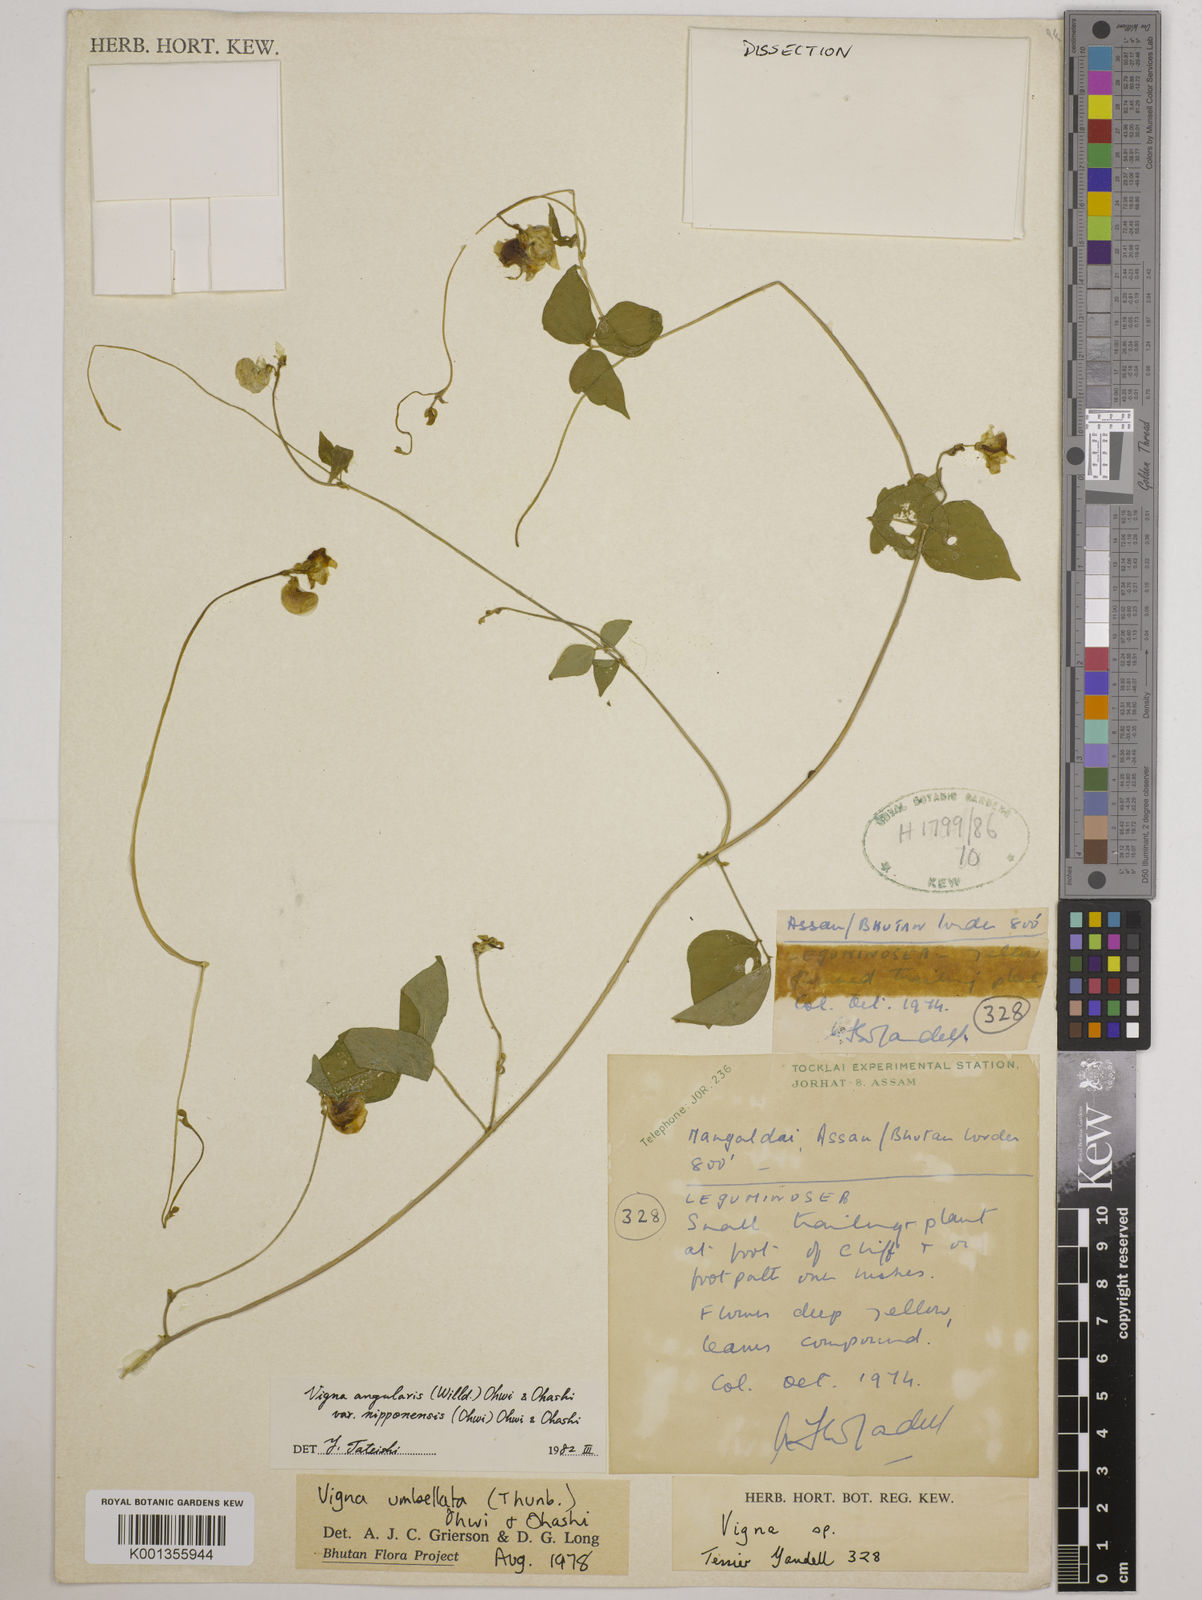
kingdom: Plantae
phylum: Tracheophyta
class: Magnoliopsida
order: Fabales
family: Fabaceae
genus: Vigna
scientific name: Vigna
